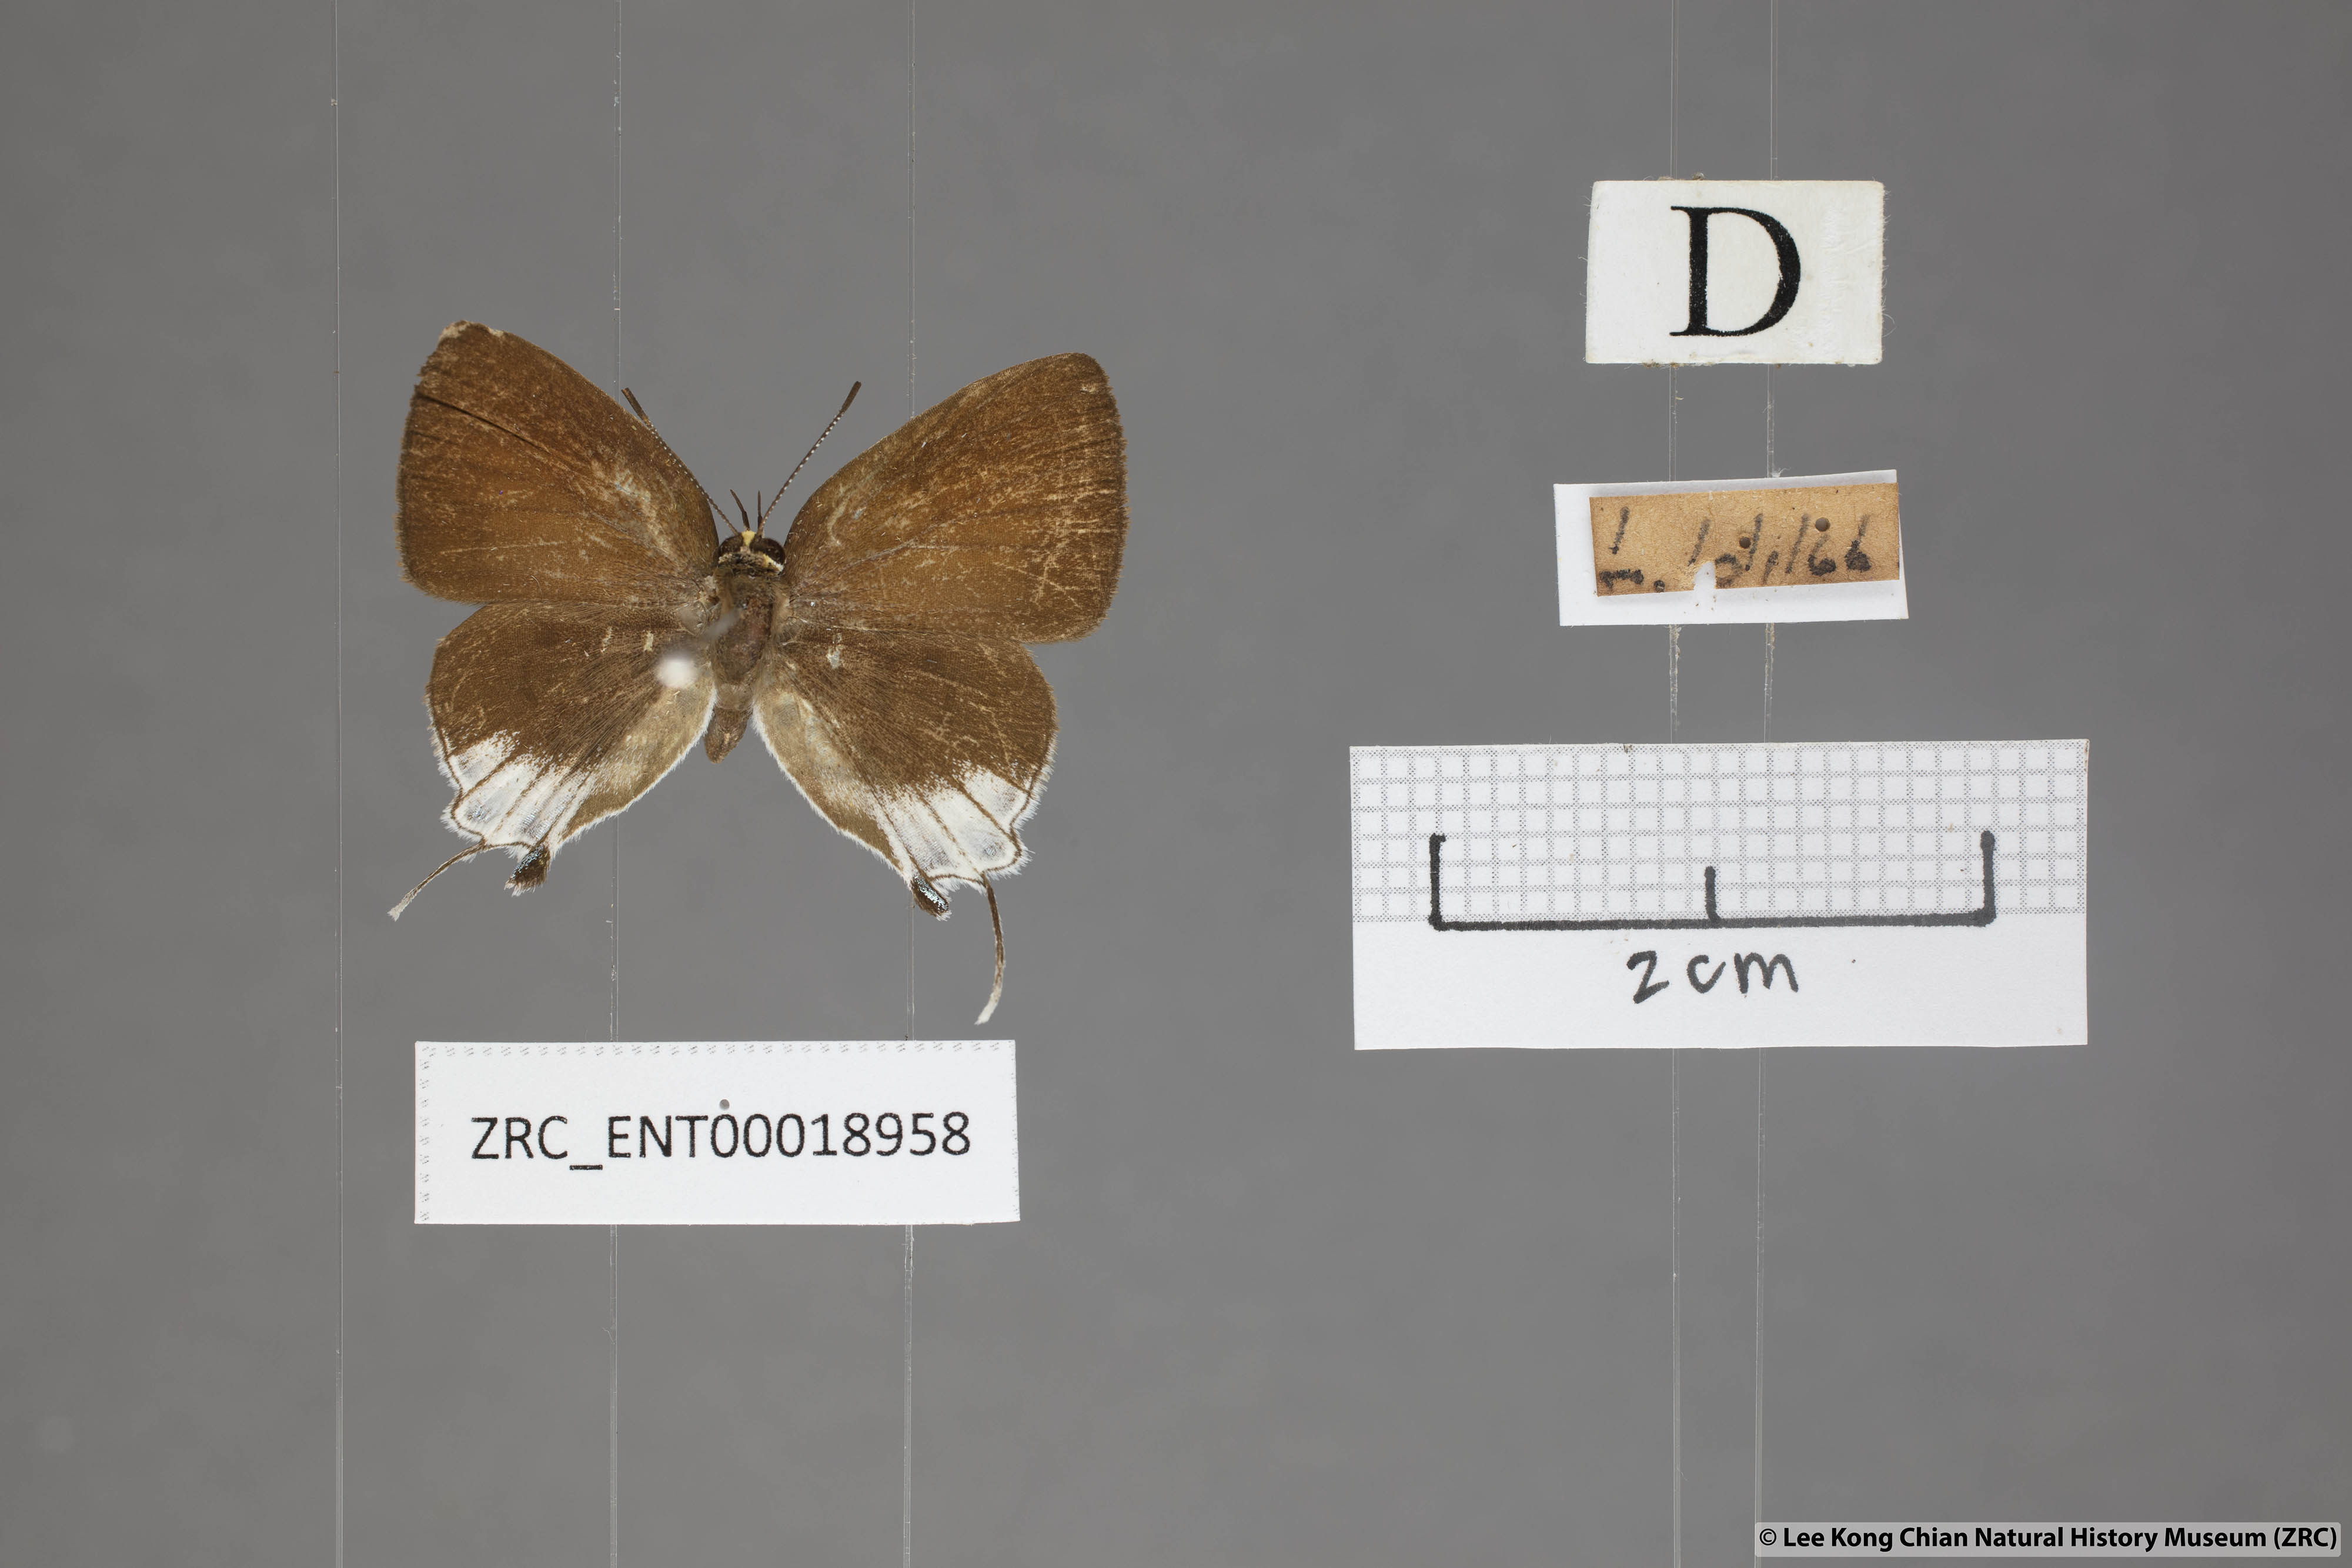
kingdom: Animalia
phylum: Arthropoda
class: Insecta
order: Lepidoptera
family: Lycaenidae
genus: Araotes
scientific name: Araotes lapithis
